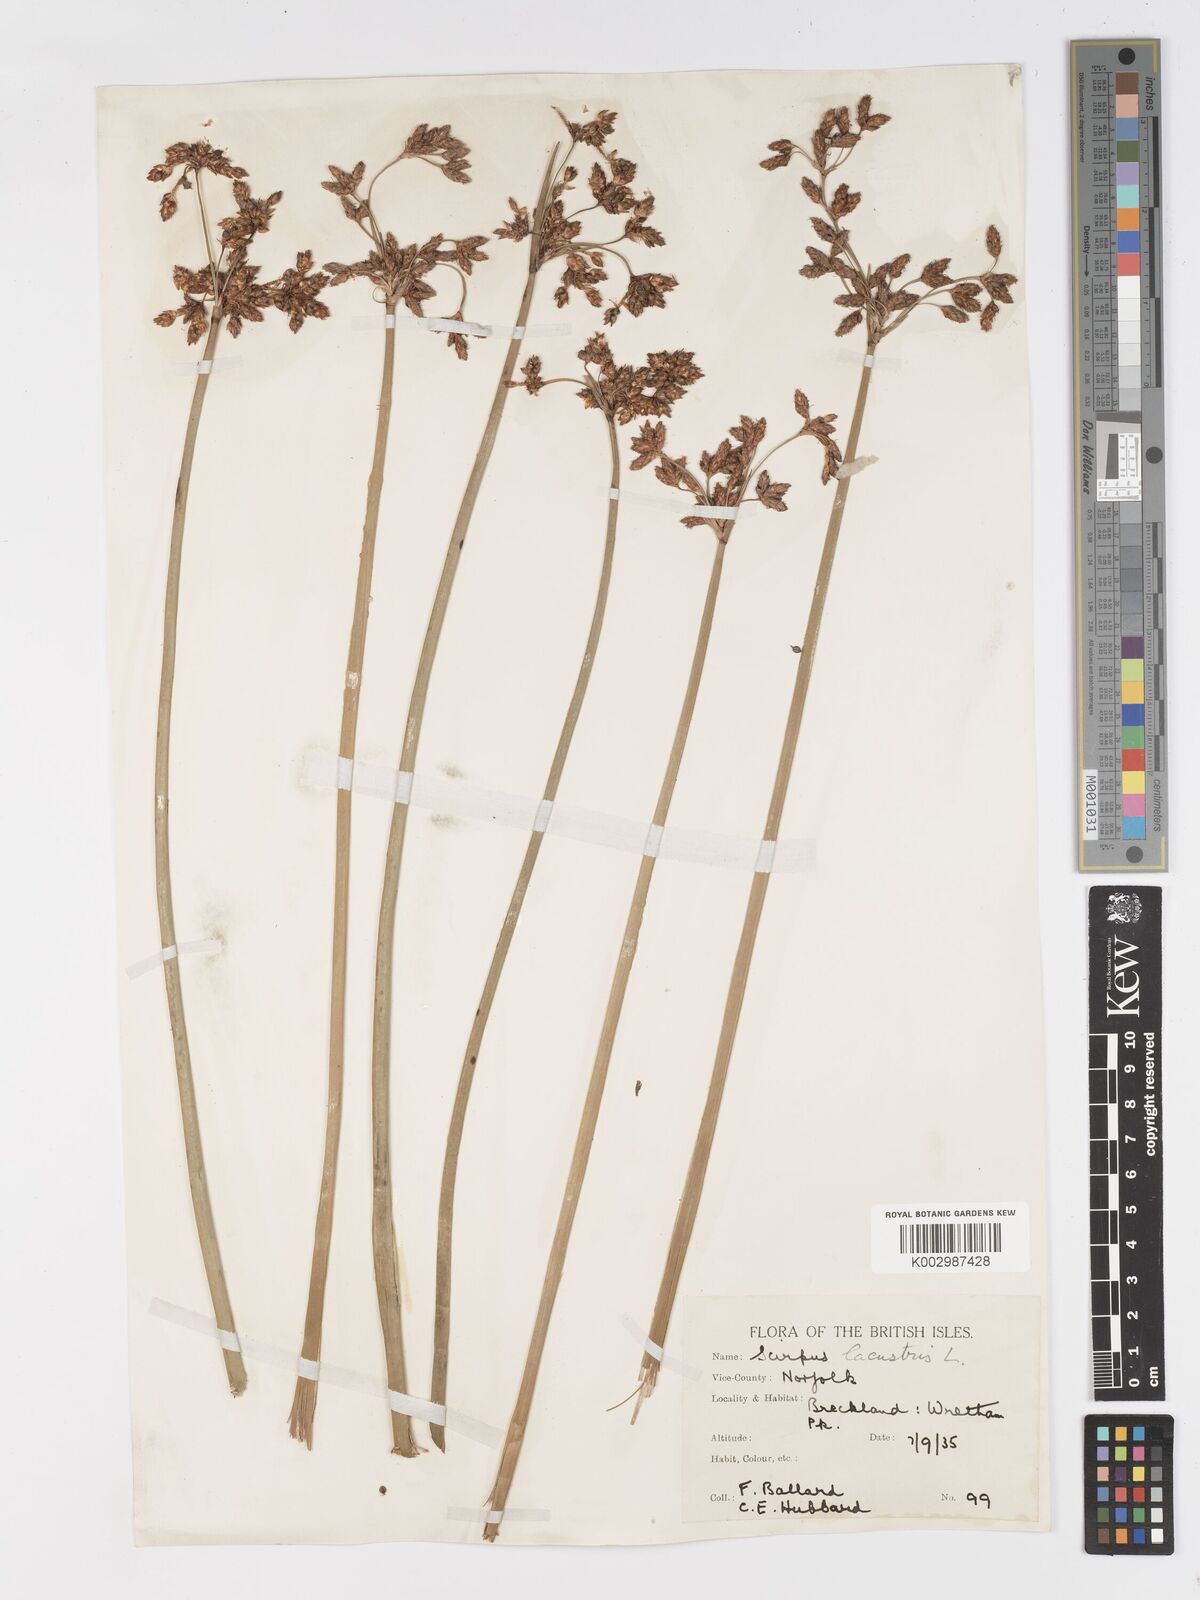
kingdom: Plantae
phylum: Tracheophyta
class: Liliopsida
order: Poales
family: Cyperaceae
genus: Schoenoplectus
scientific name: Schoenoplectus lacustris
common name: Common club-rush
